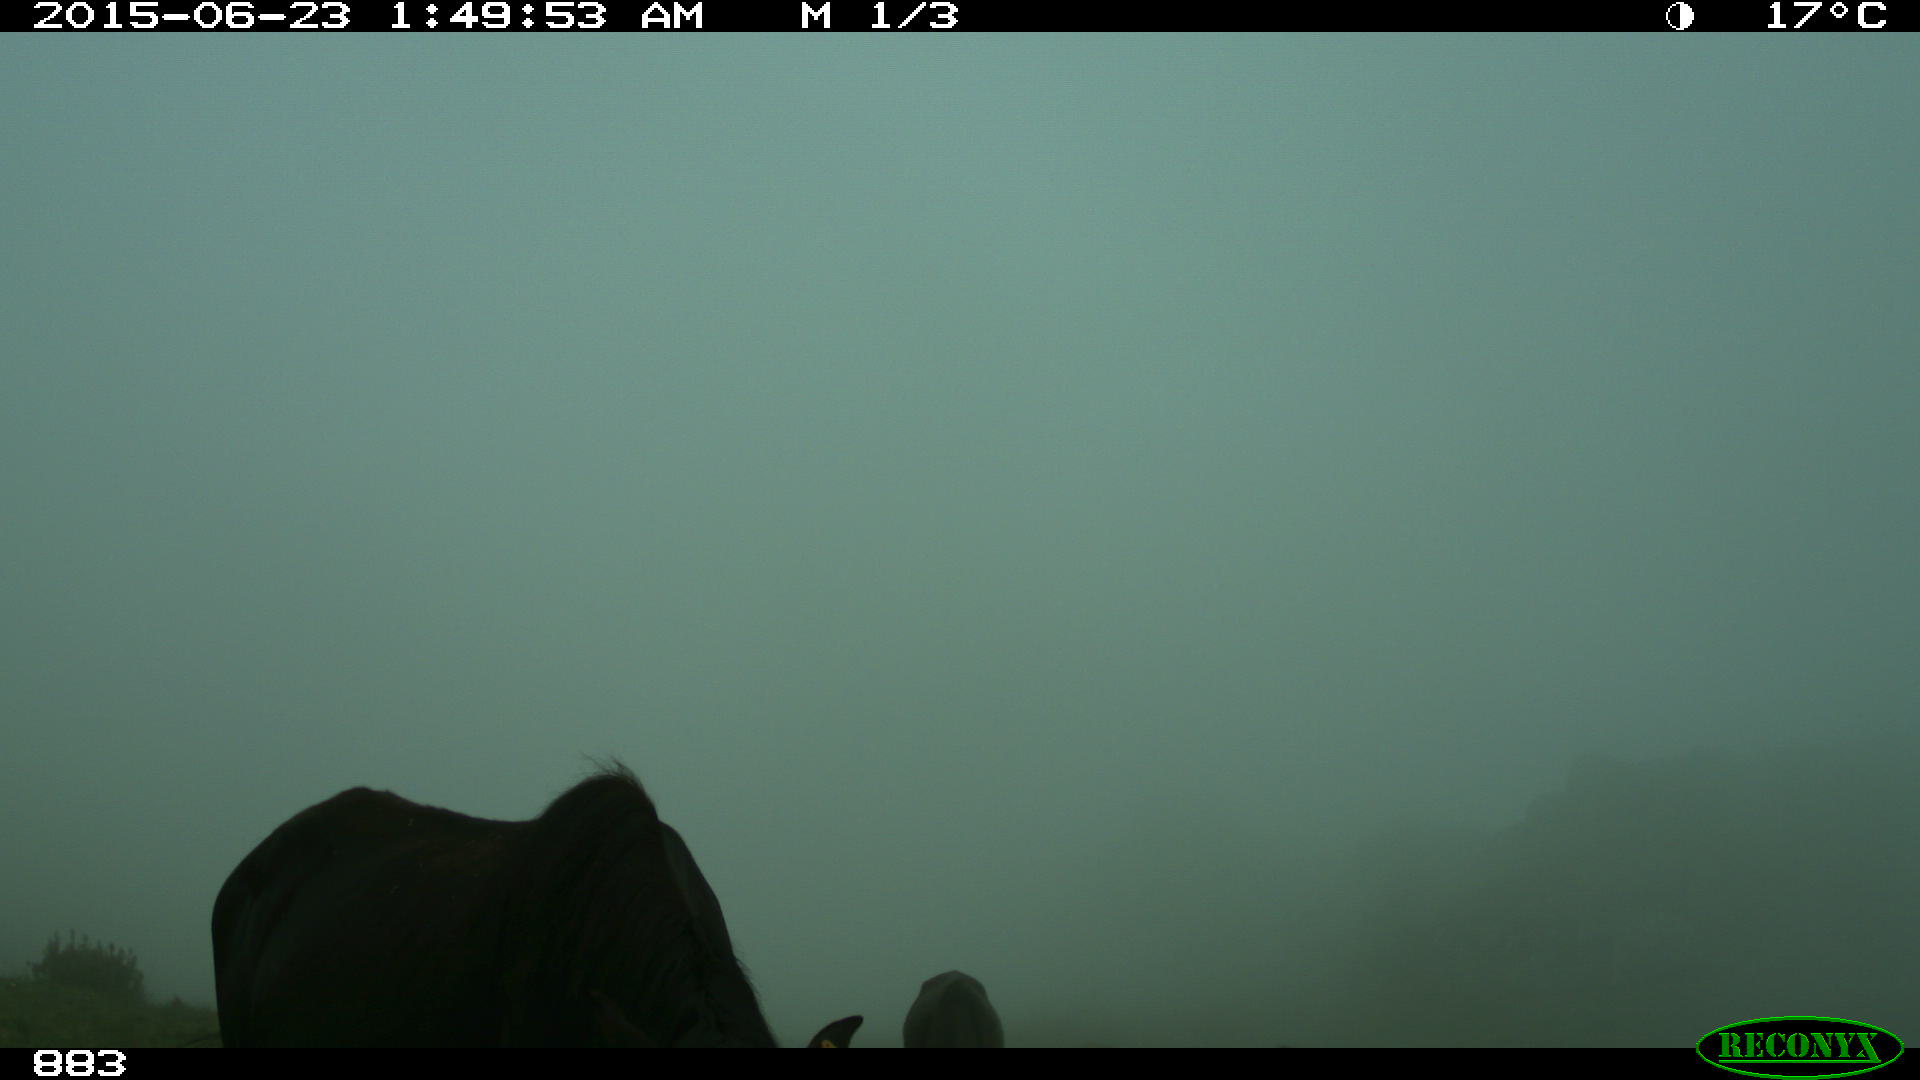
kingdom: Animalia
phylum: Chordata
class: Mammalia
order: Perissodactyla
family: Equidae
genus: Equus
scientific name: Equus caballus
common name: Horse
